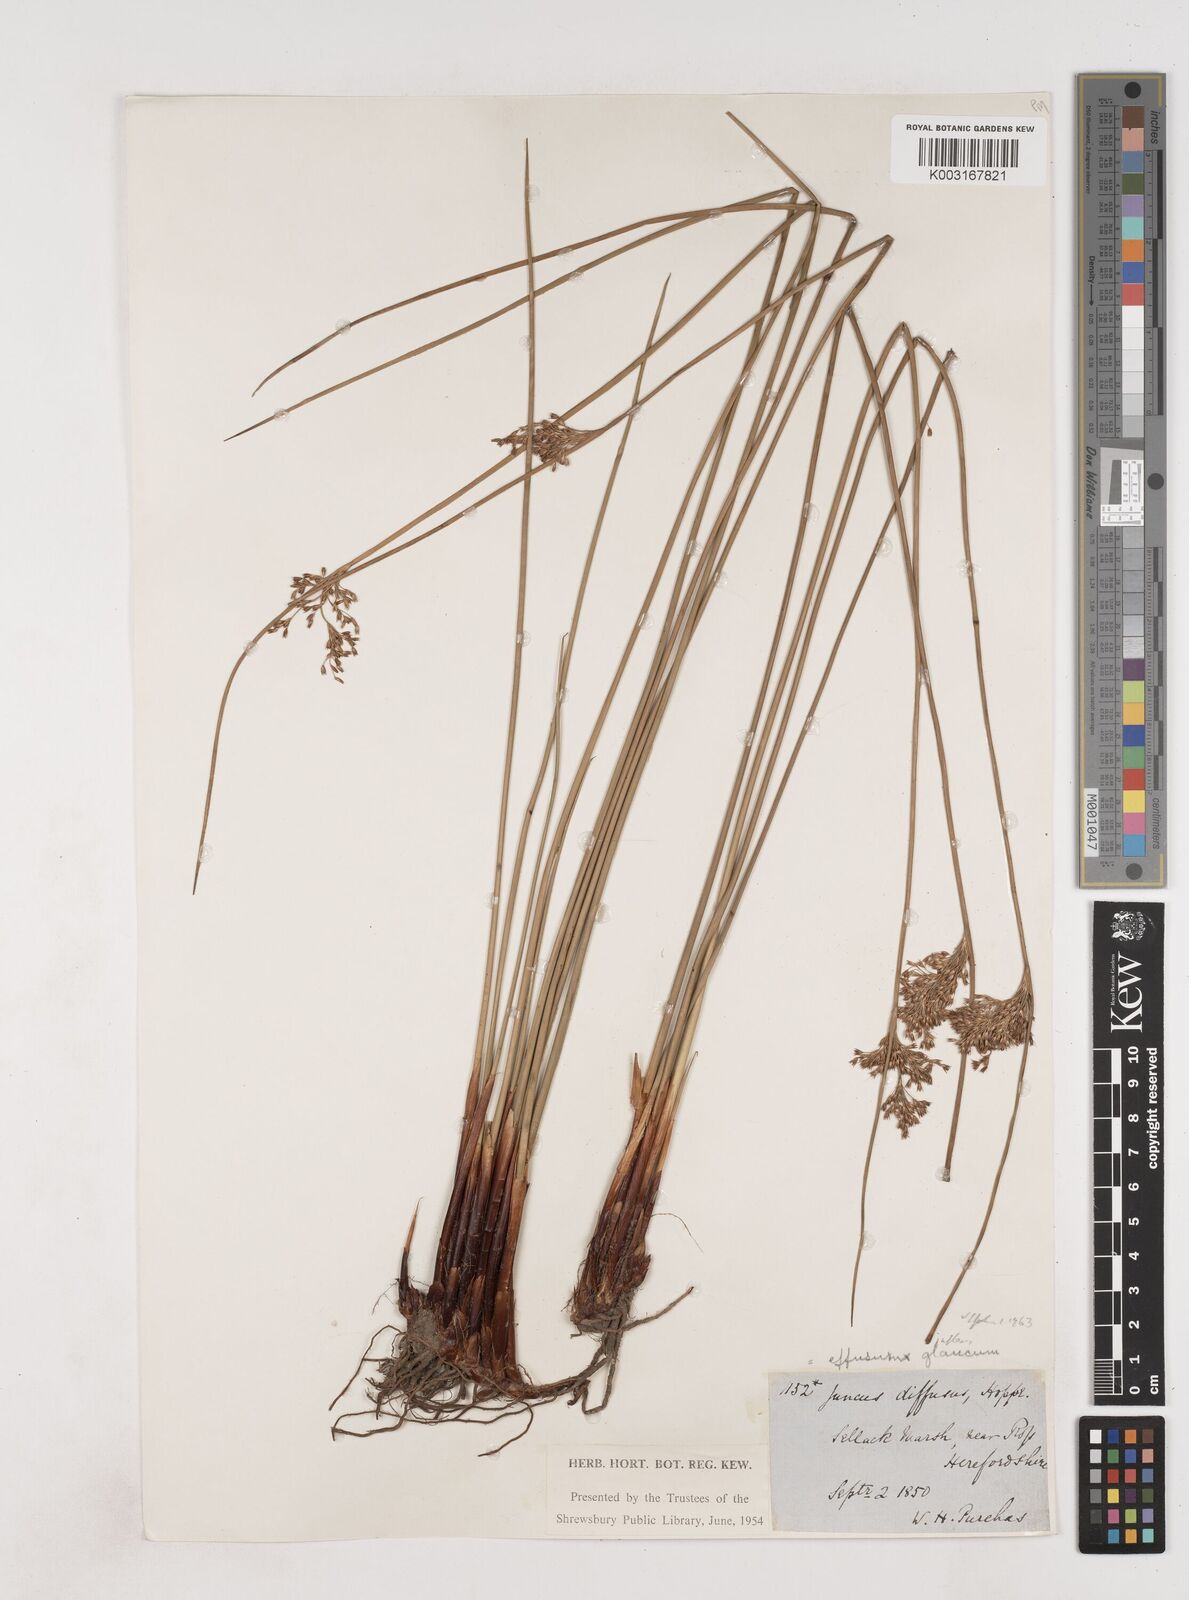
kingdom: Plantae
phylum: Tracheophyta
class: Liliopsida
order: Poales
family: Juncaceae
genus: Juncus
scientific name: Juncus effusus
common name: Soft rush
